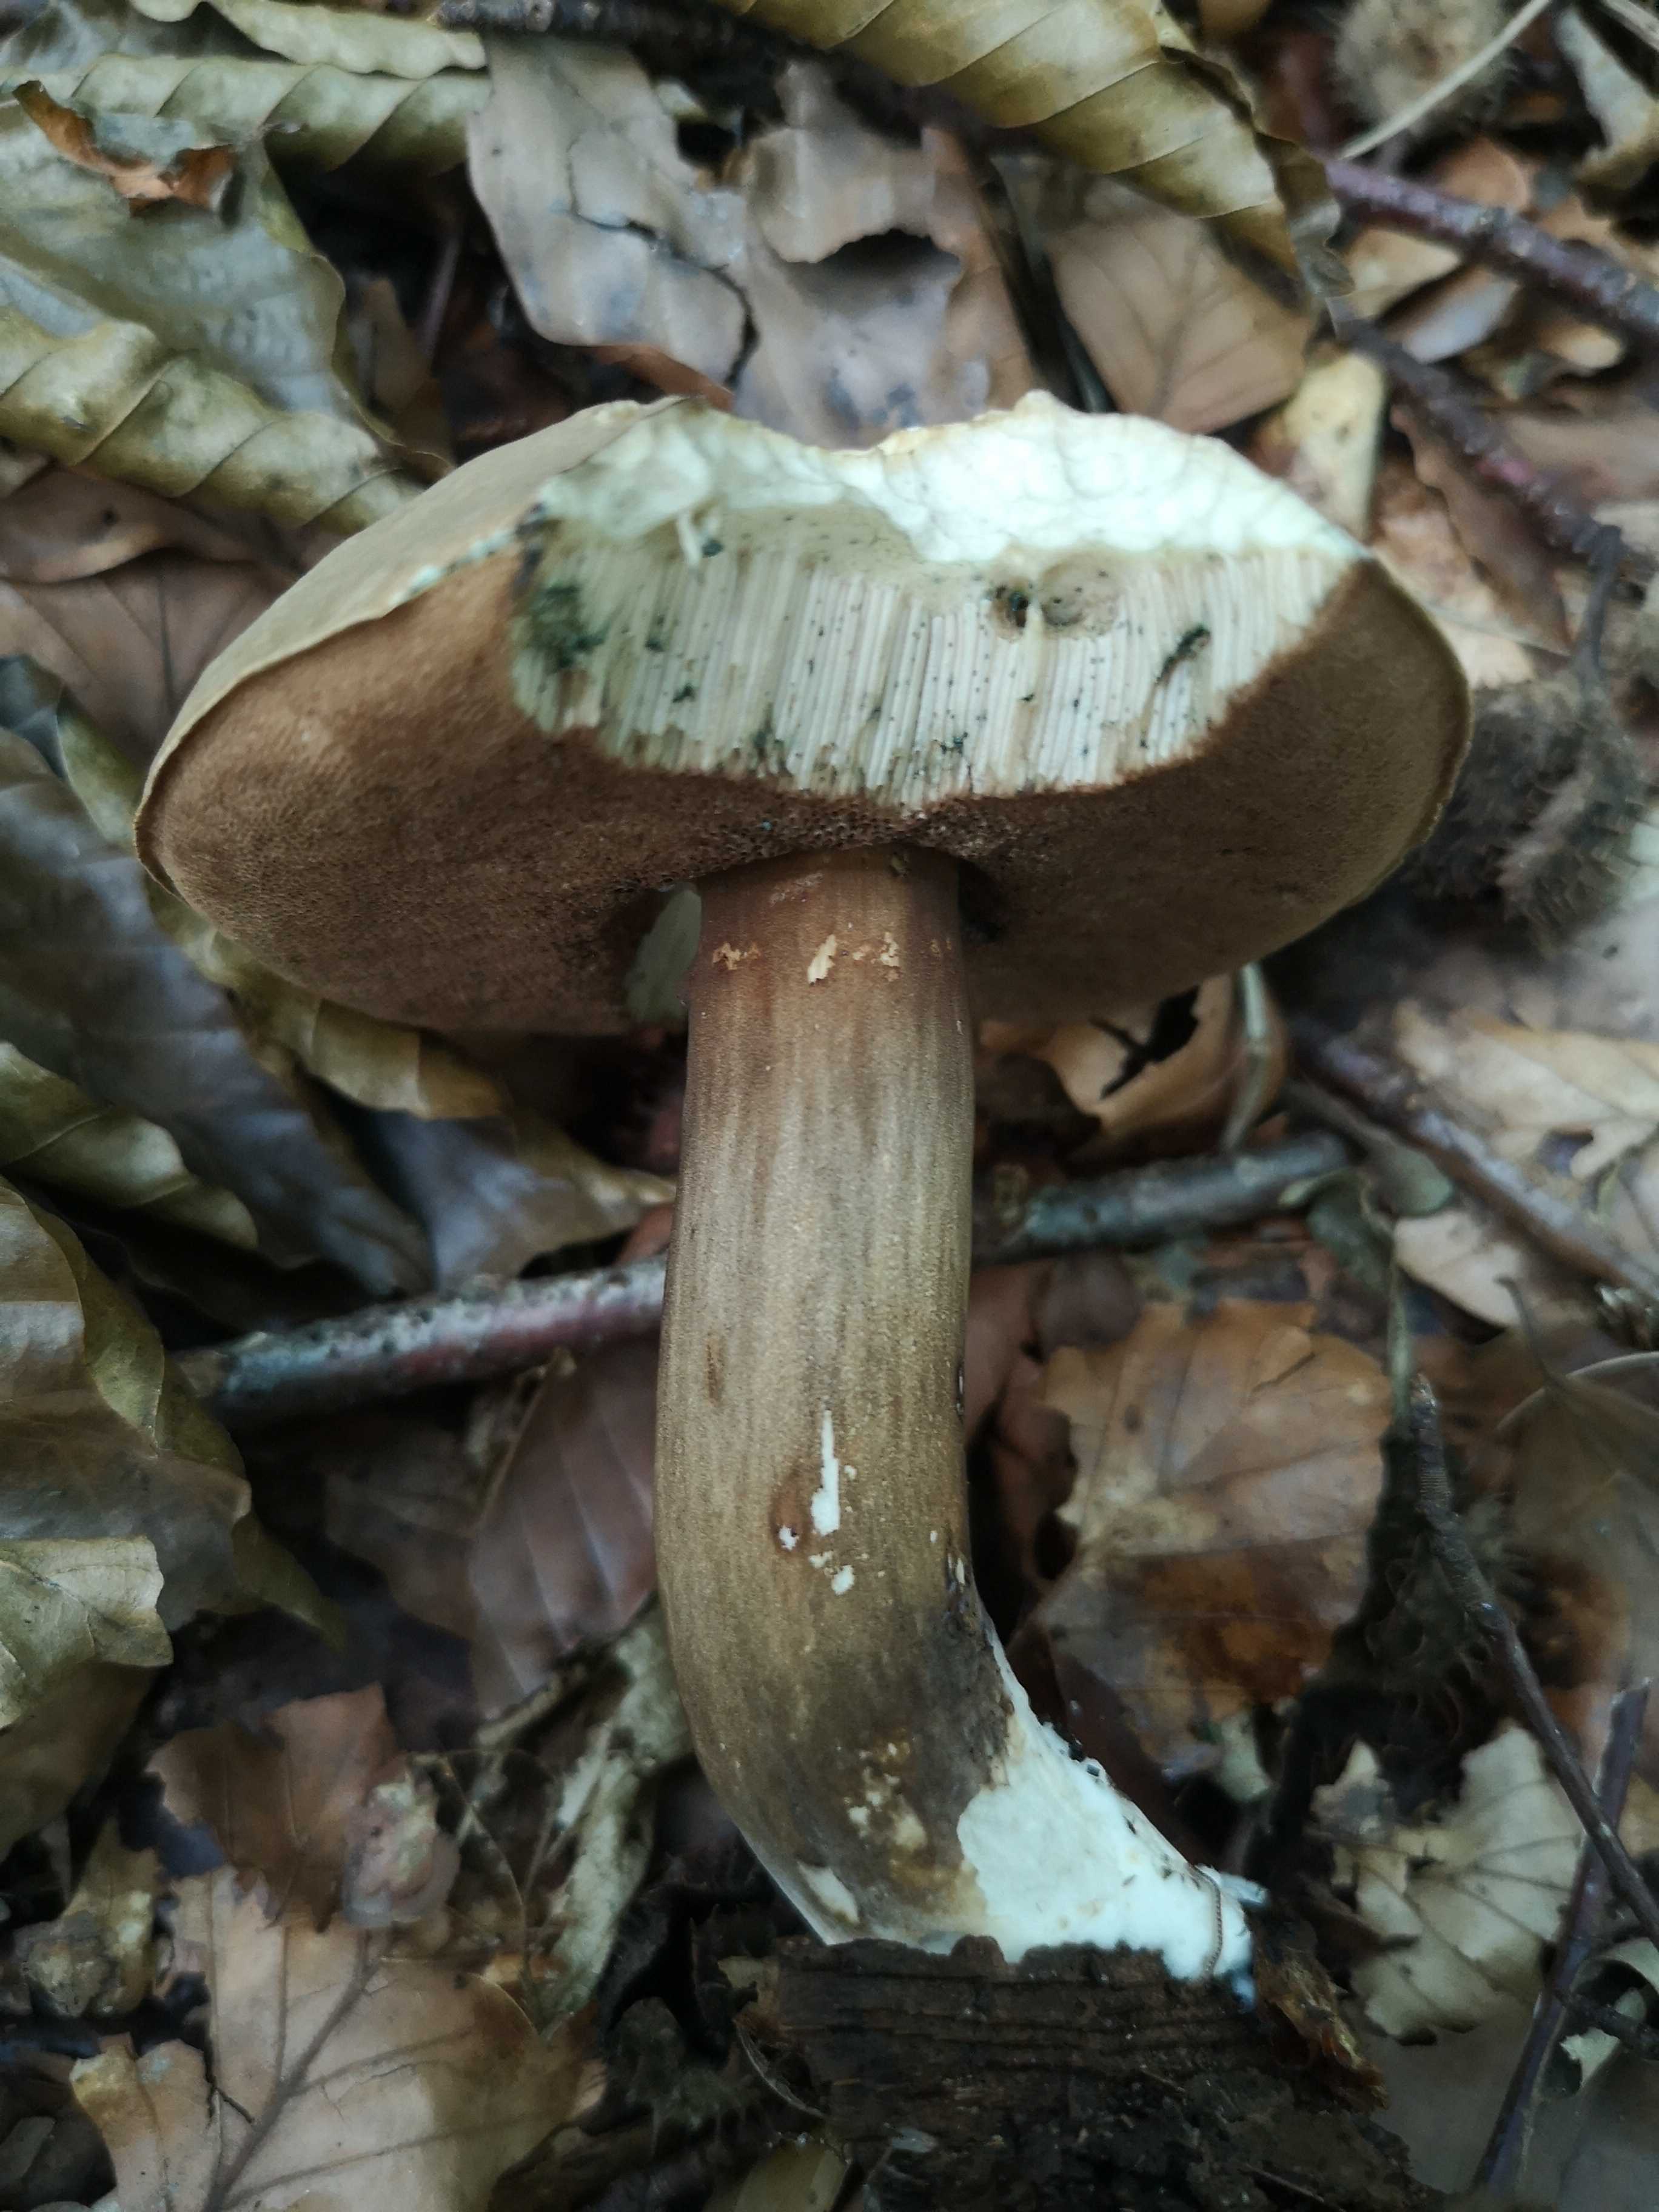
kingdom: Fungi
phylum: Basidiomycota
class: Agaricomycetes
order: Boletales
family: Boletaceae
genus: Porphyrellus
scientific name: Porphyrellus porphyrosporus
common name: sodrørhat
